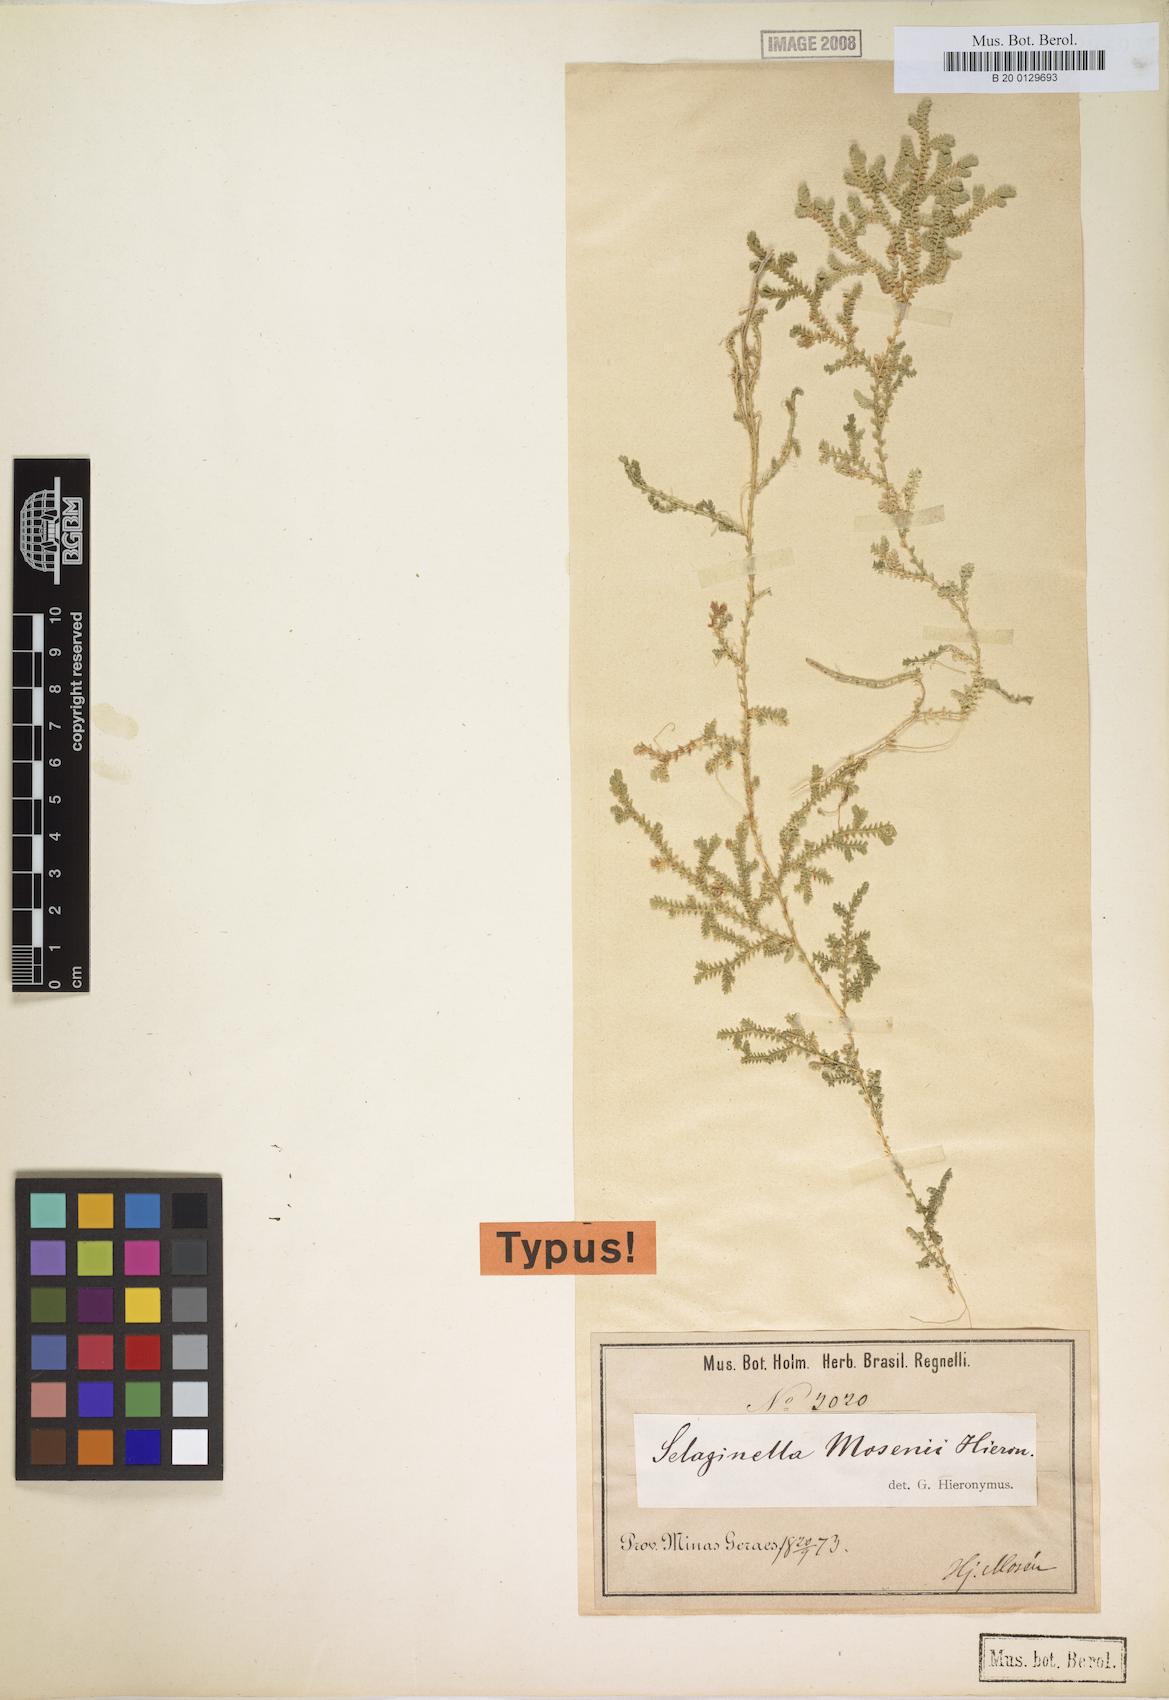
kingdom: Plantae
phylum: Tracheophyta
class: Lycopodiopsida
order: Selaginellales
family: Selaginellaceae
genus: Selaginella
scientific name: Selaginella marginata
